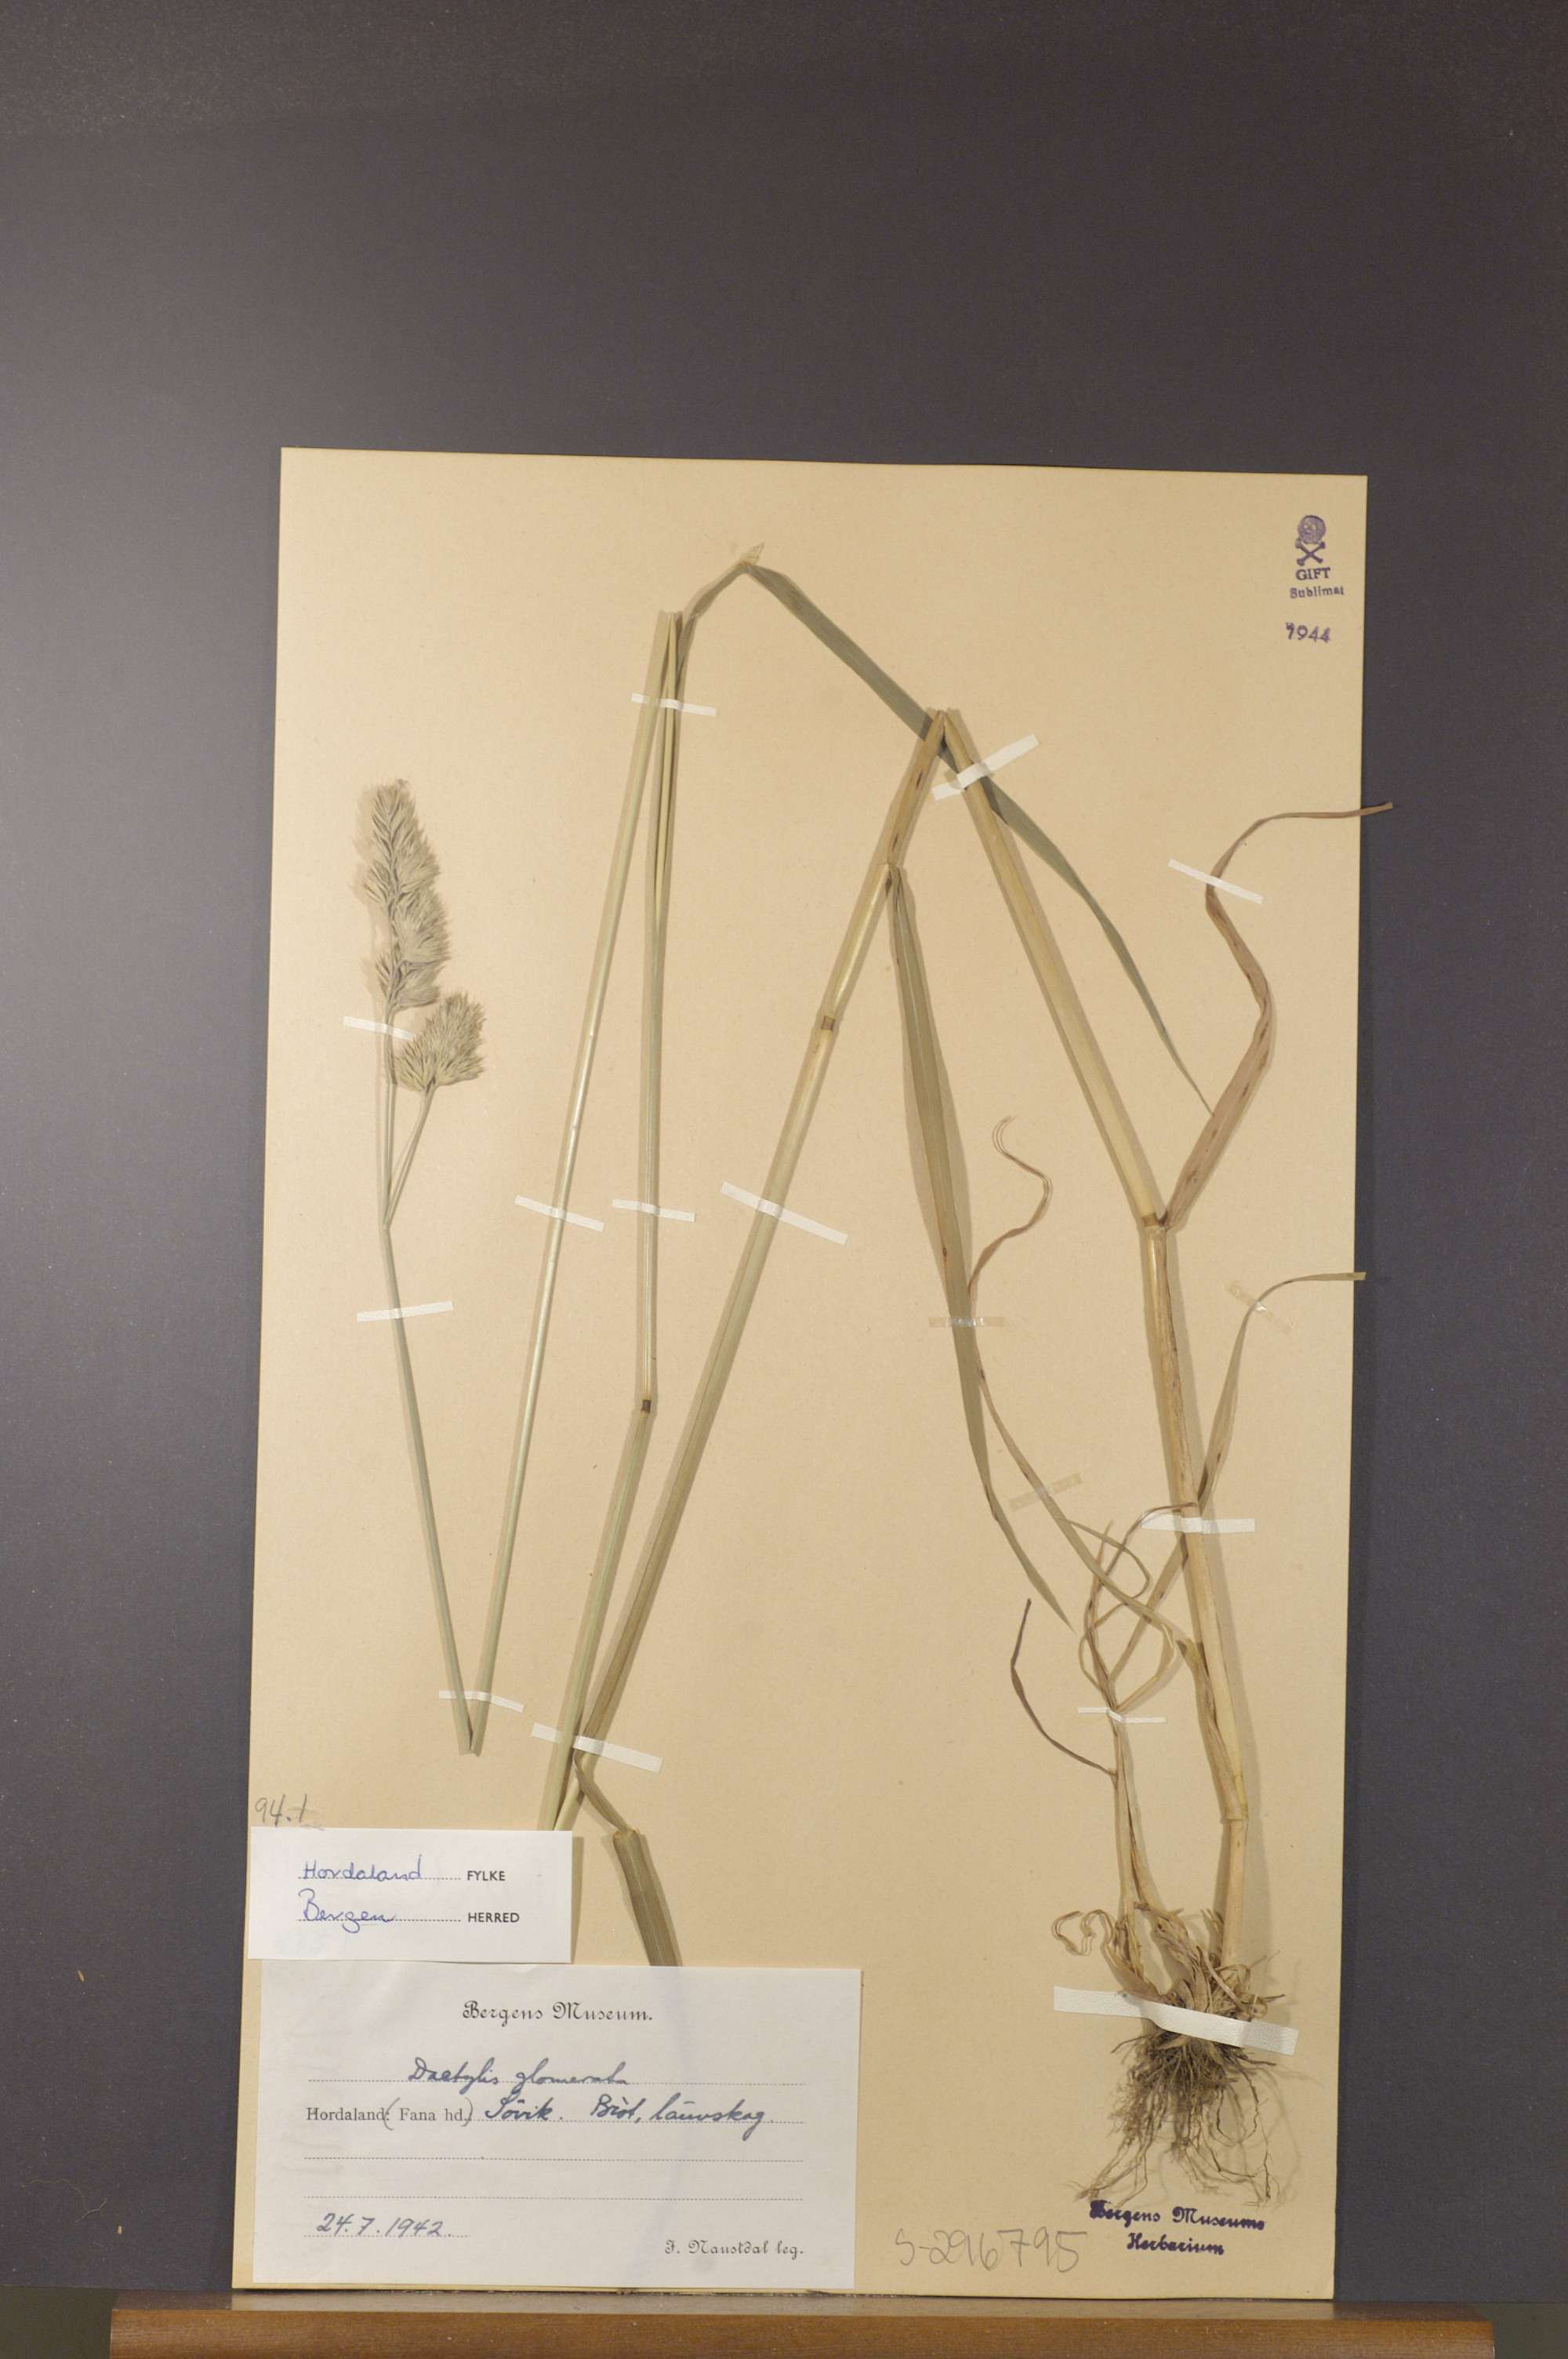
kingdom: Plantae
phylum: Tracheophyta
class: Liliopsida
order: Poales
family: Poaceae
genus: Dactylis
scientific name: Dactylis glomerata
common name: Orchardgrass
